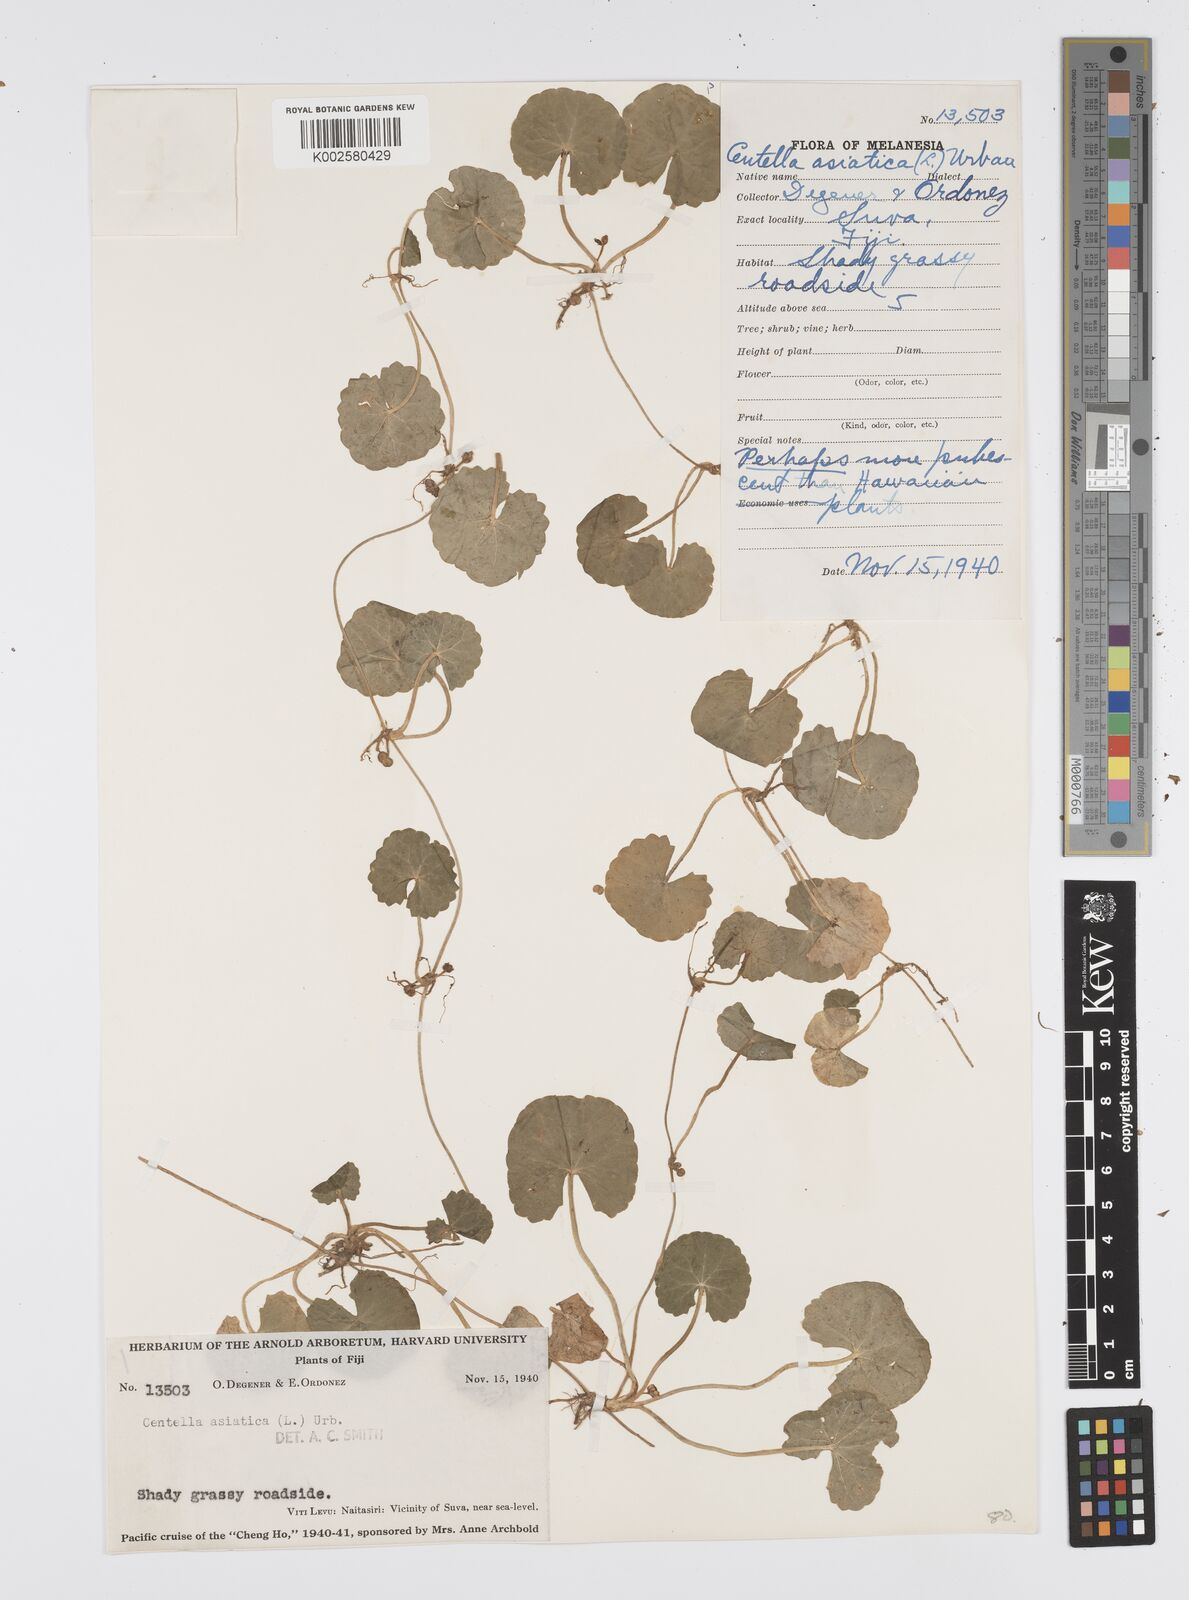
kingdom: Plantae
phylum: Tracheophyta
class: Magnoliopsida
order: Apiales
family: Apiaceae
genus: Centella
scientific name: Centella asiatica
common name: Spadeleaf
